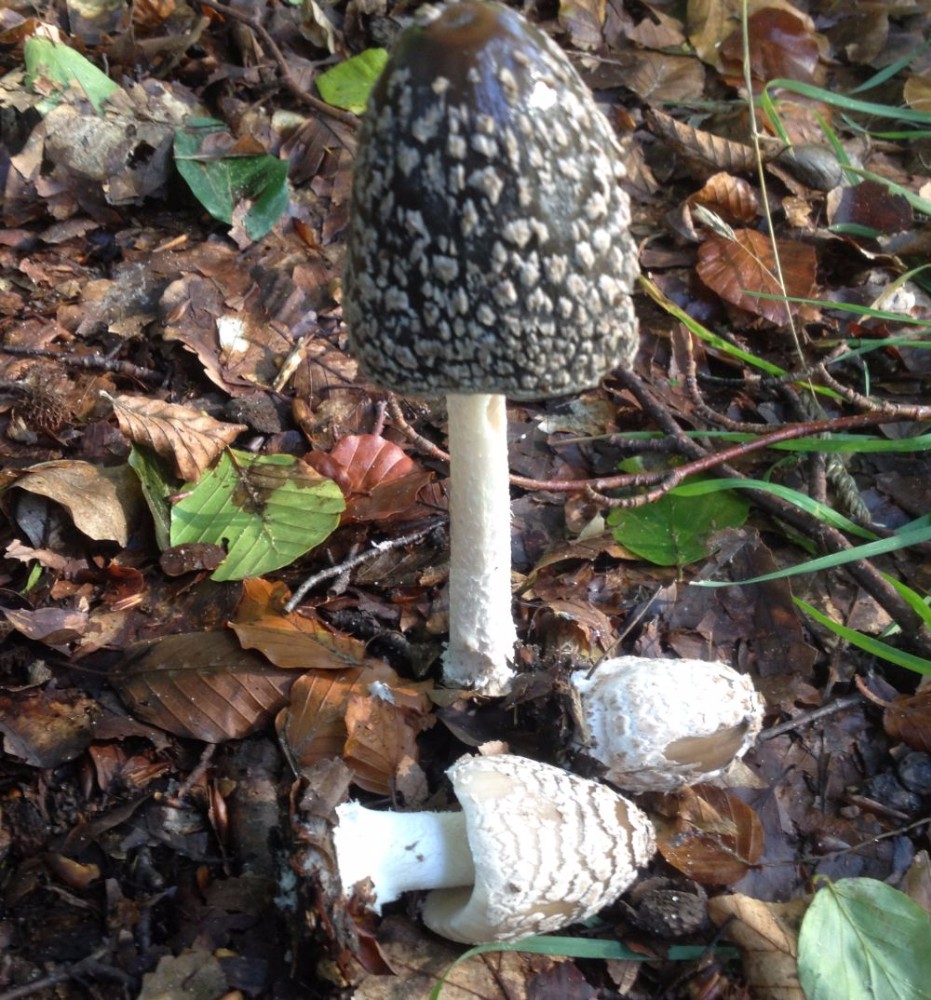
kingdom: Fungi
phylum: Basidiomycota
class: Agaricomycetes
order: Agaricales
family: Psathyrellaceae
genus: Coprinopsis
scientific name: Coprinopsis picacea
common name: skade-blækhat
